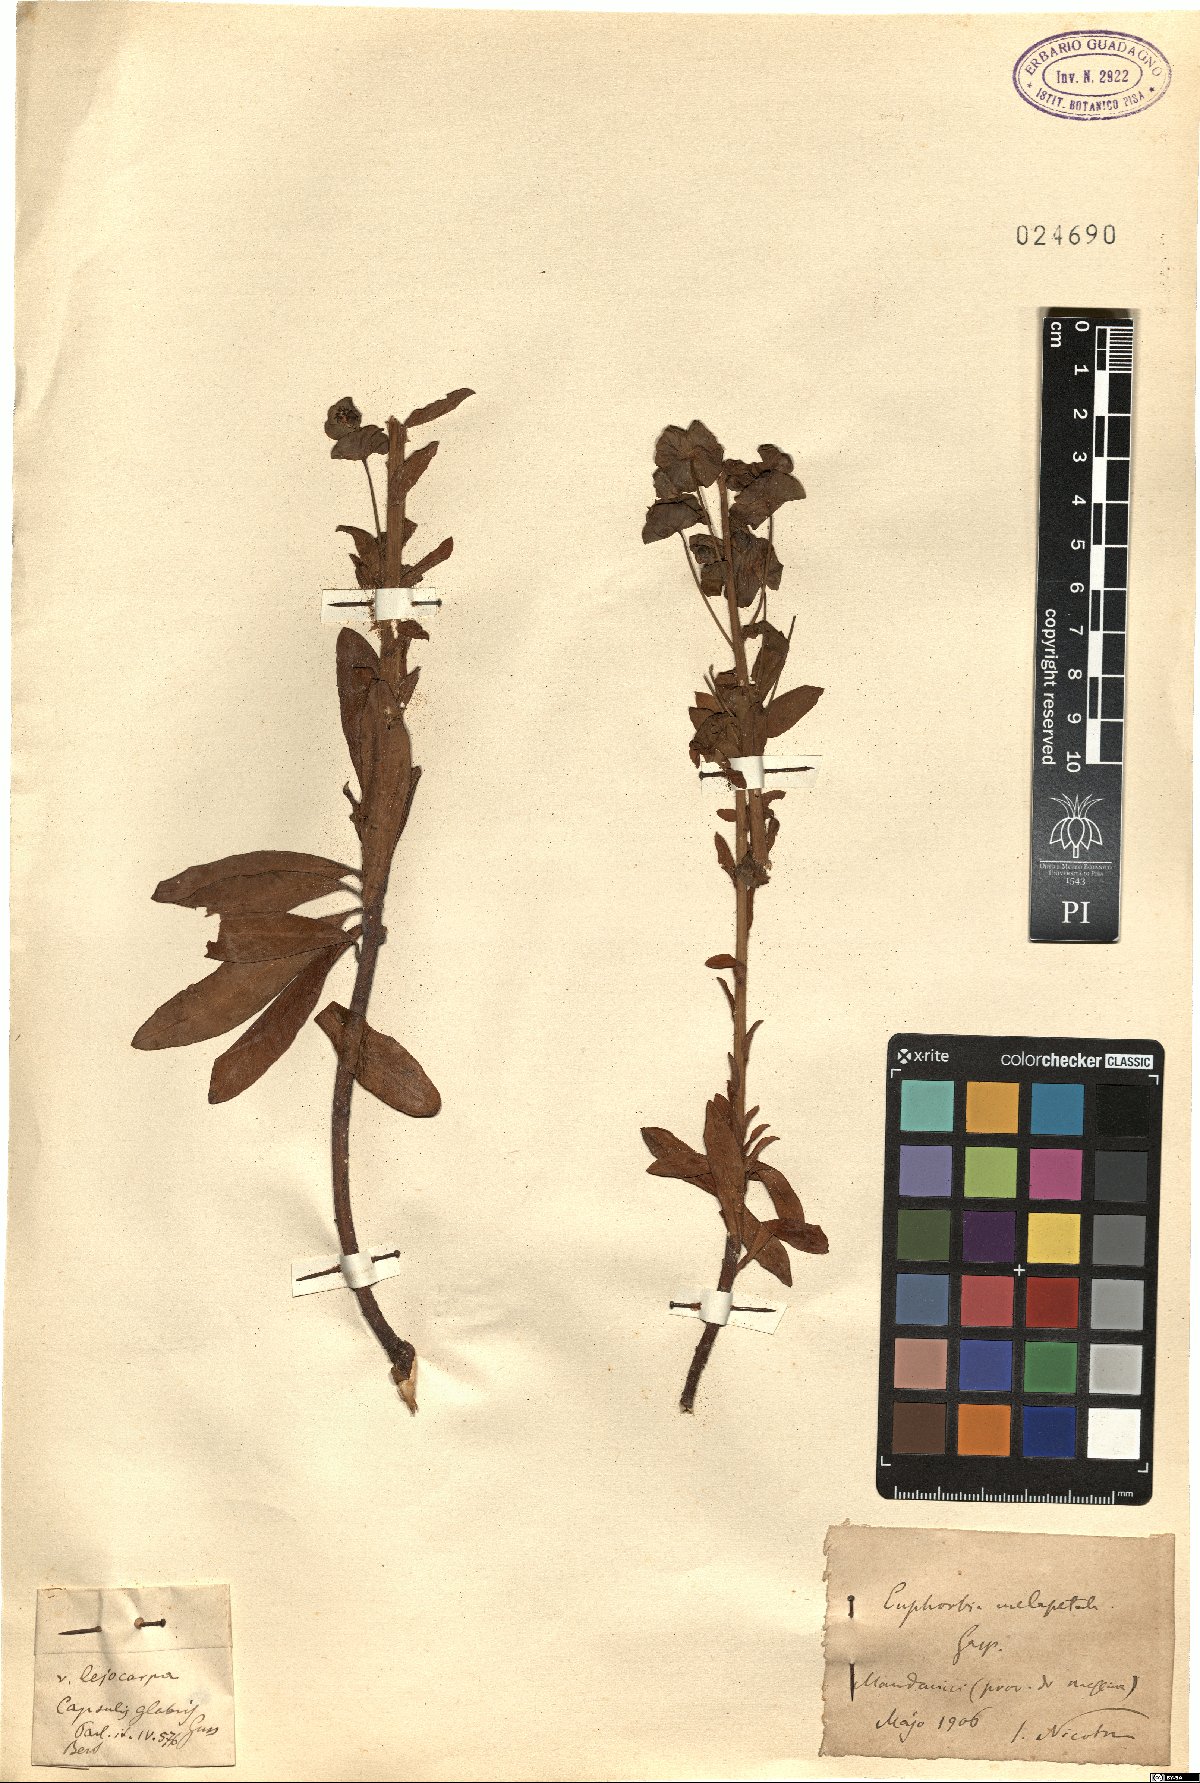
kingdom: Plantae
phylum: Tracheophyta
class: Magnoliopsida
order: Malpighiales
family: Euphorbiaceae
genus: Euphorbia
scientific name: Euphorbia characias
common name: Mediterranean spurge
